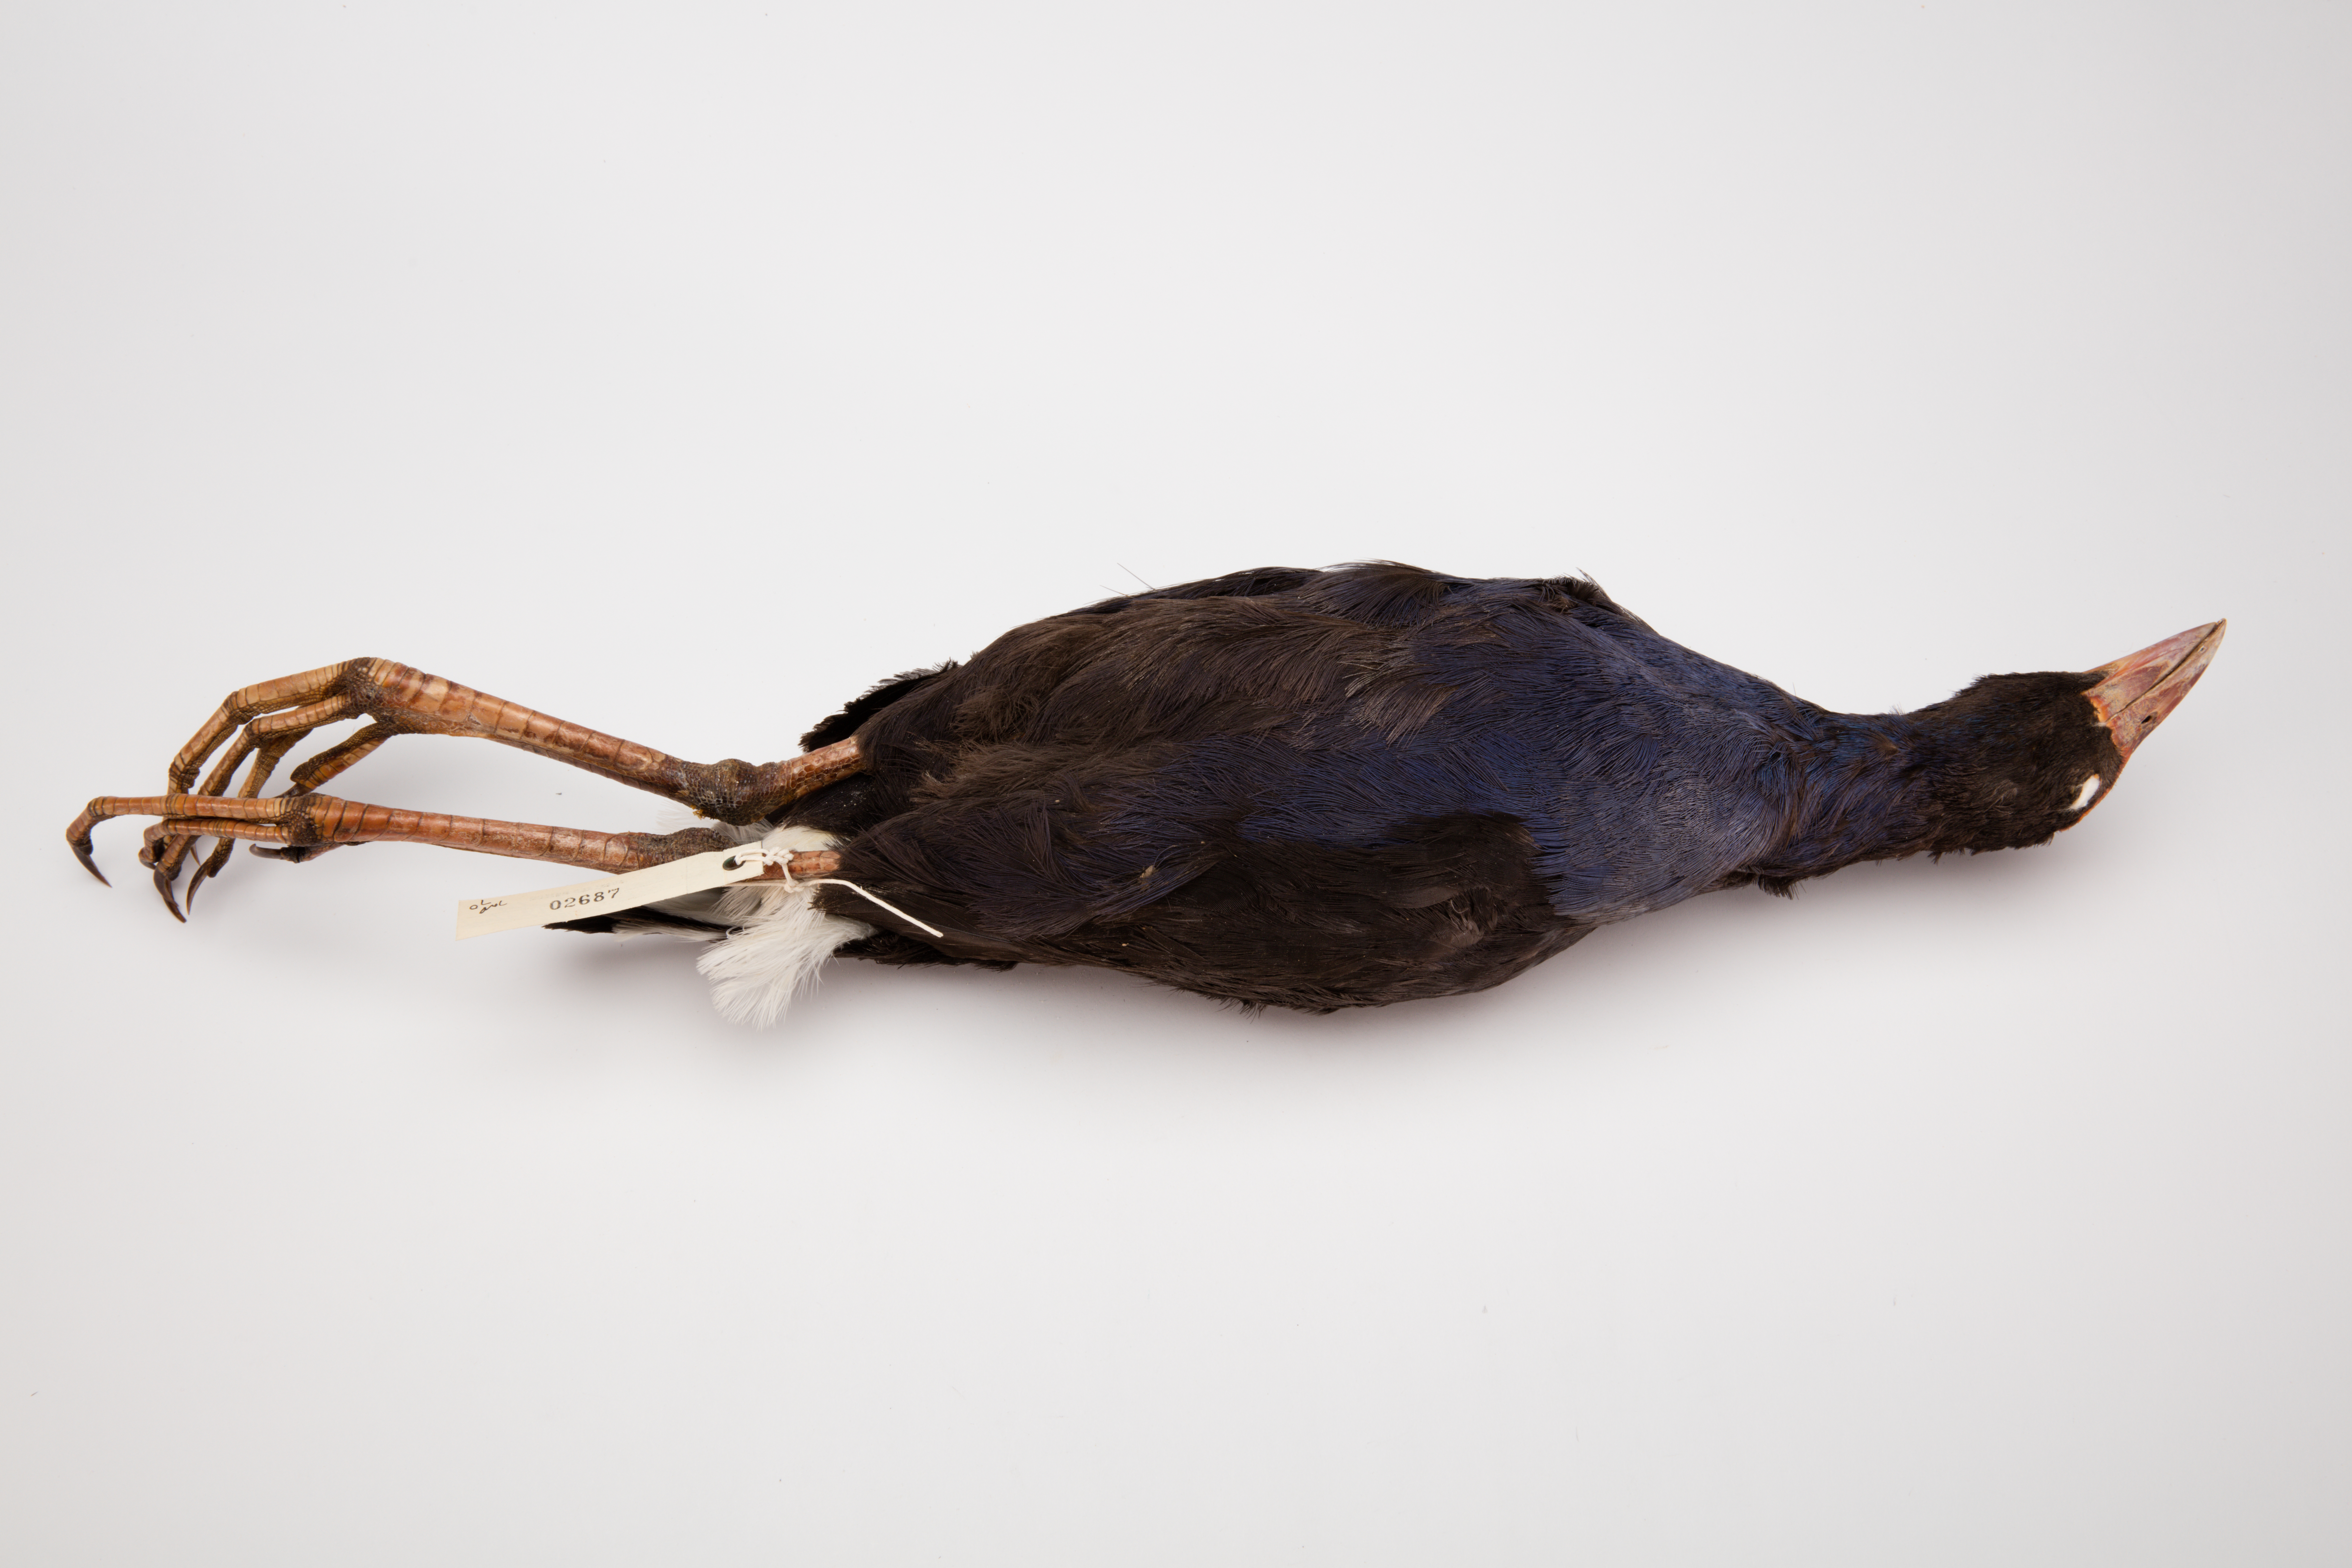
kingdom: Animalia
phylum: Chordata
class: Aves
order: Gruiformes
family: Rallidae
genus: Porphyrio
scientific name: Porphyrio melanotus
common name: Australasian swamphen
